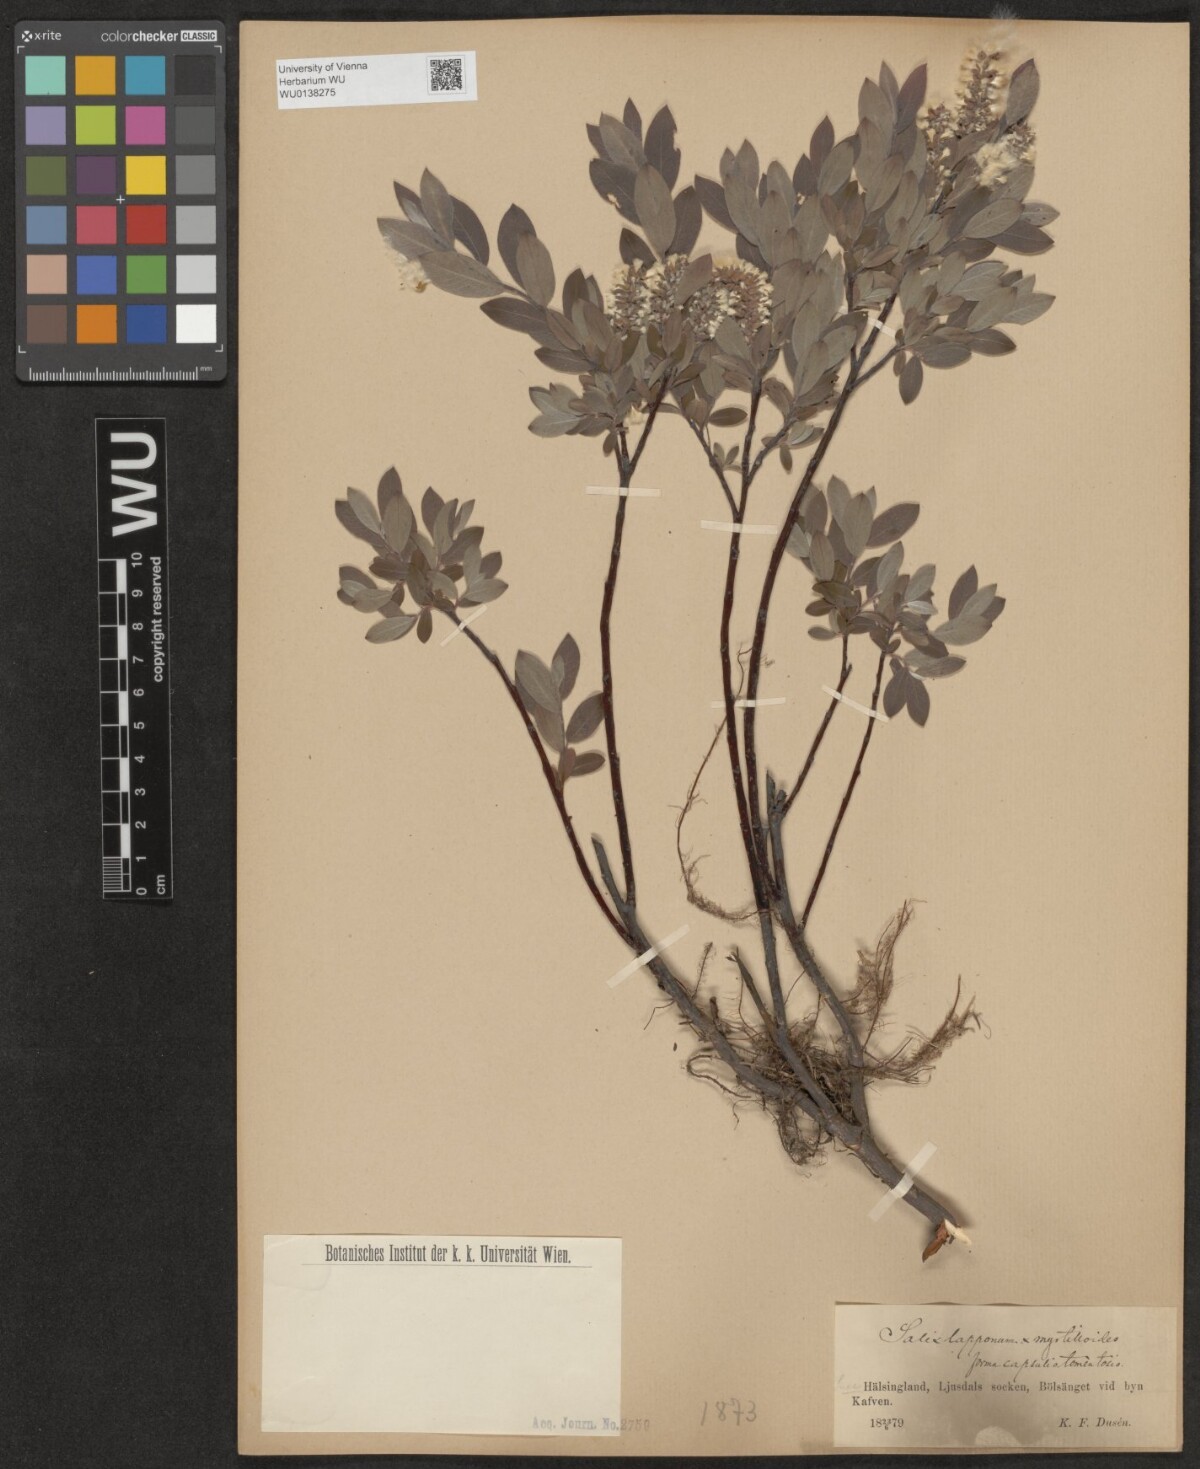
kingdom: Plantae
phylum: Tracheophyta
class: Magnoliopsida
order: Malpighiales
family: Salicaceae
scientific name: Salicaceae
